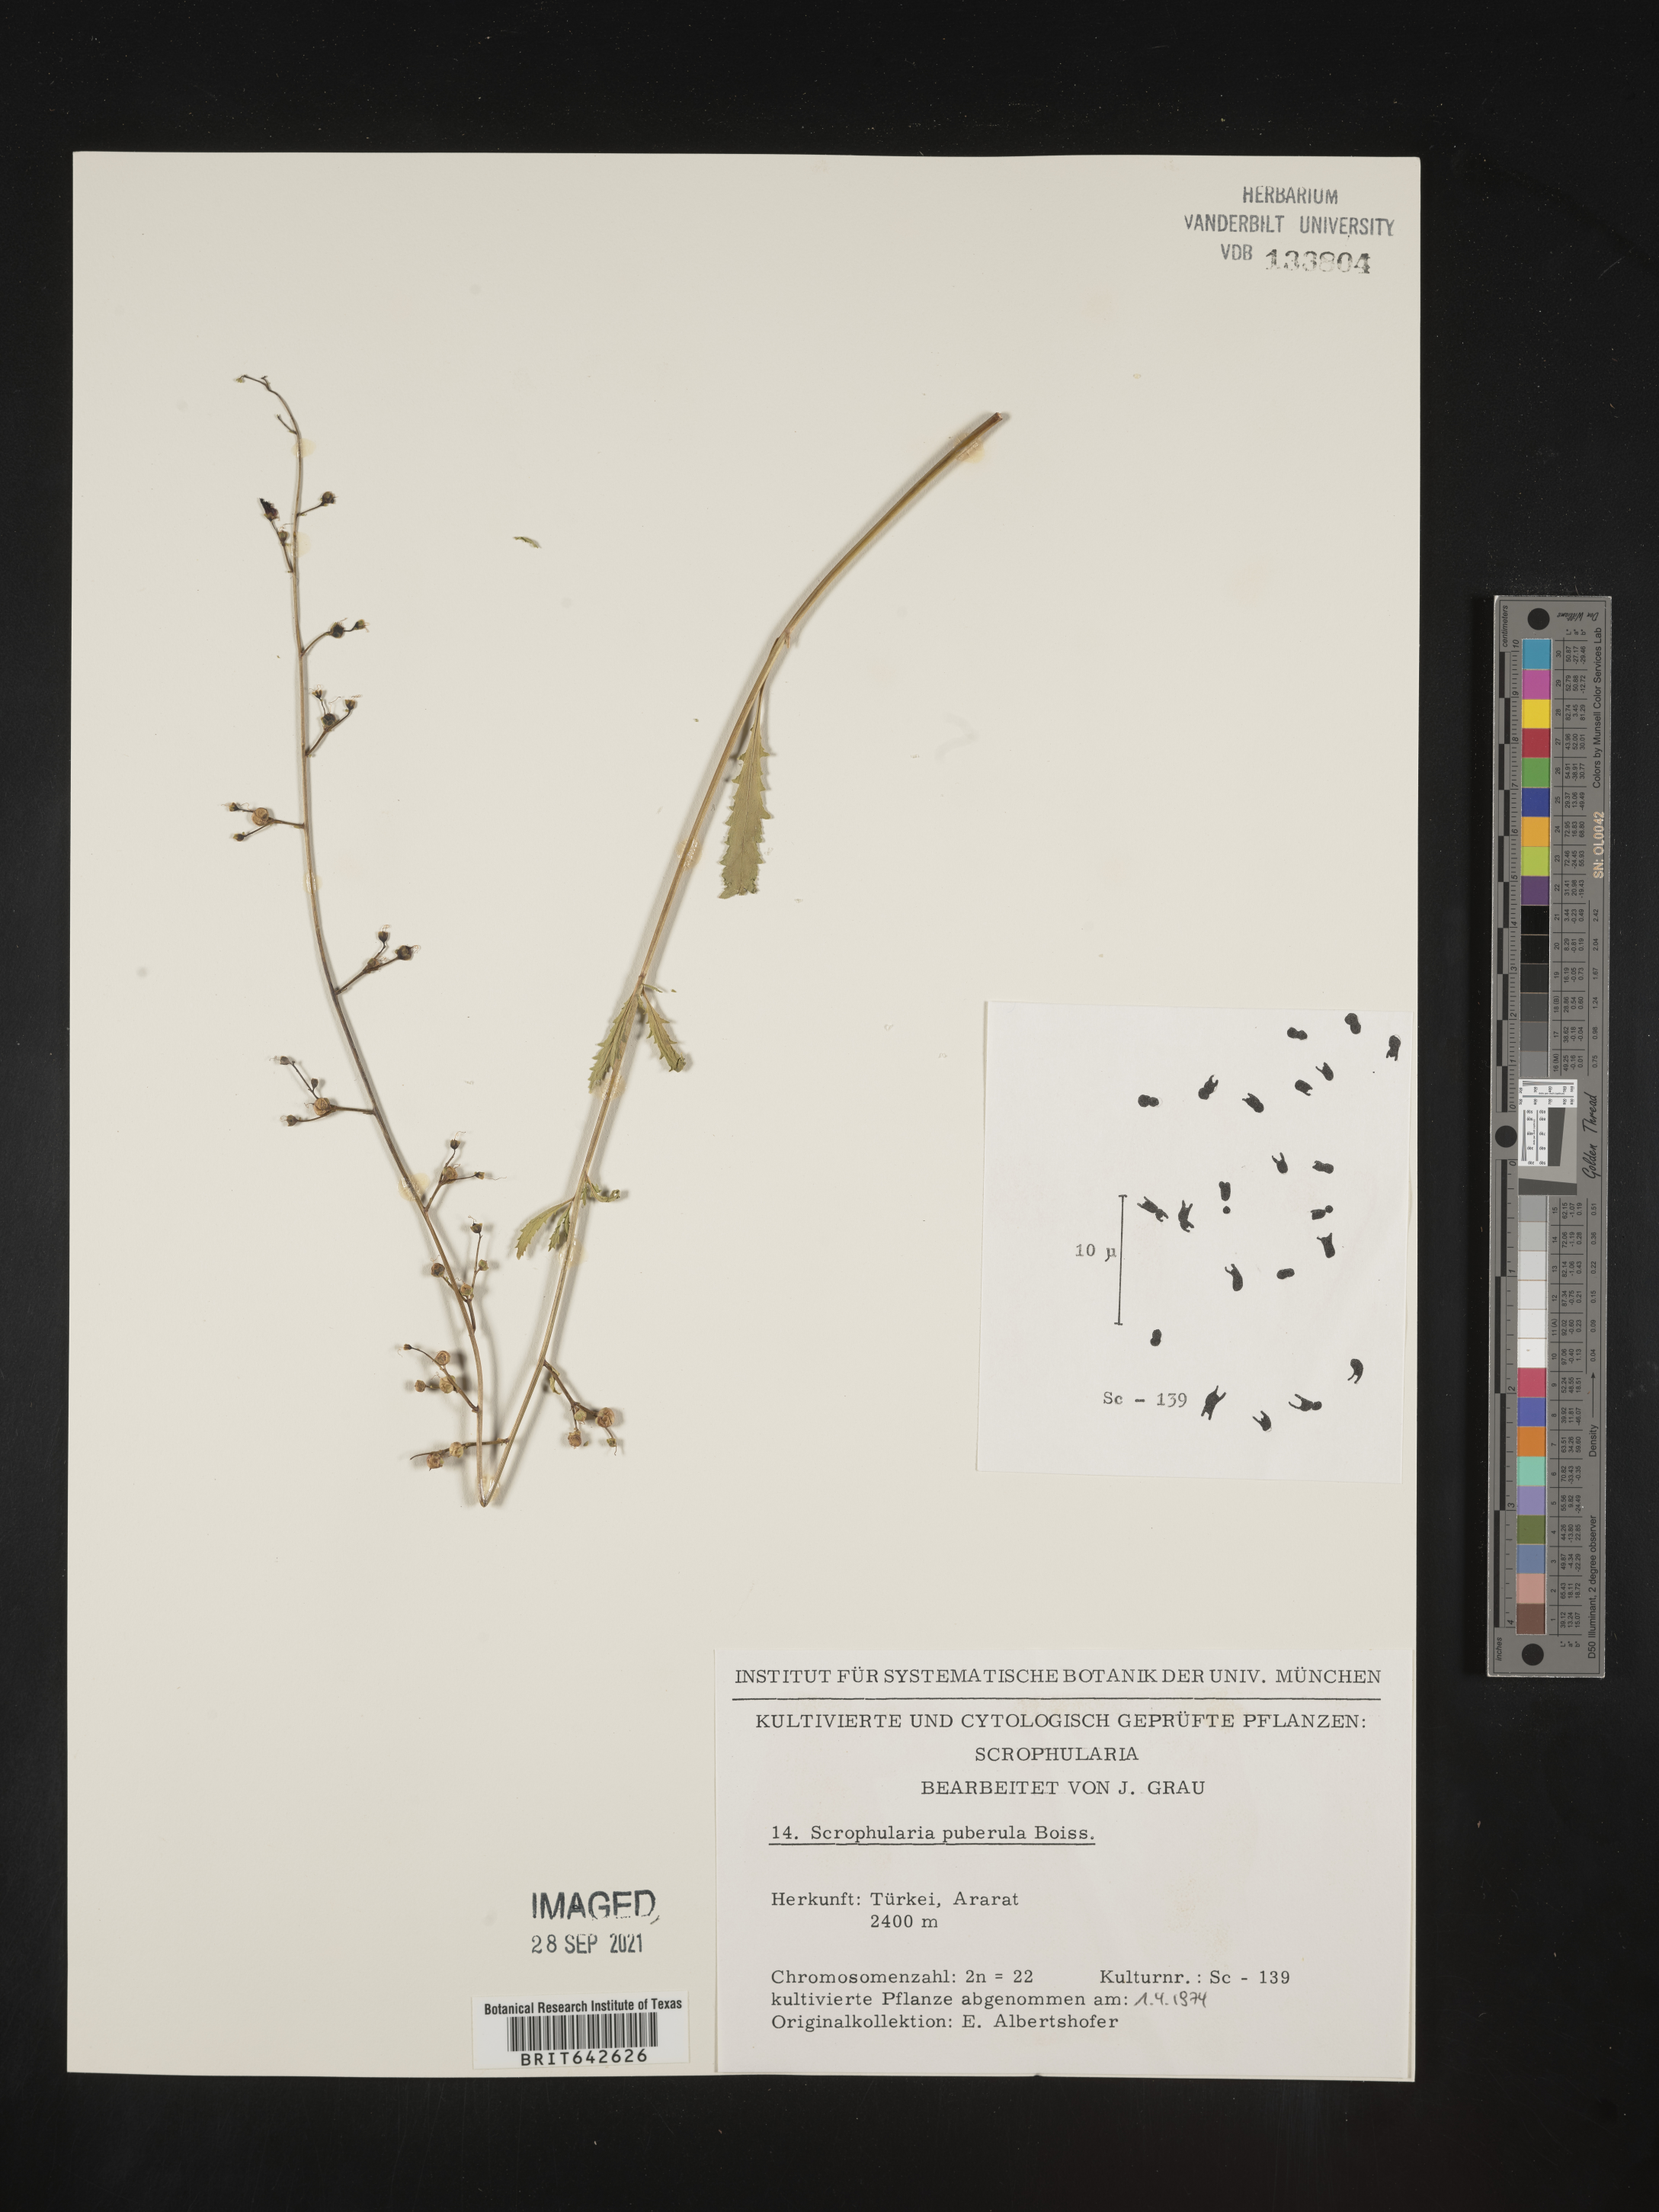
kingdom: Plantae
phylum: Tracheophyta
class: Magnoliopsida
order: Lamiales
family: Scrophulariaceae
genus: Scrophularia
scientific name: Scrophularia
